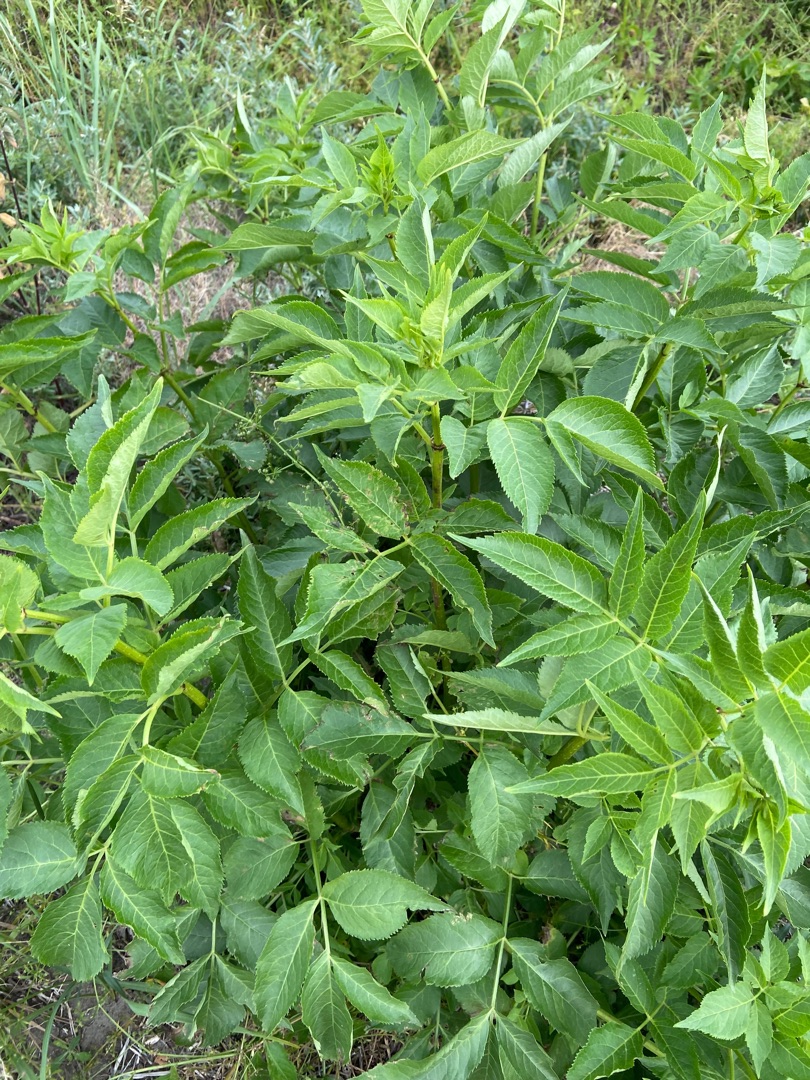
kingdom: Plantae
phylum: Tracheophyta
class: Magnoliopsida
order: Dipsacales
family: Viburnaceae
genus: Sambucus
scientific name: Sambucus nigra
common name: Almindelig hyld
